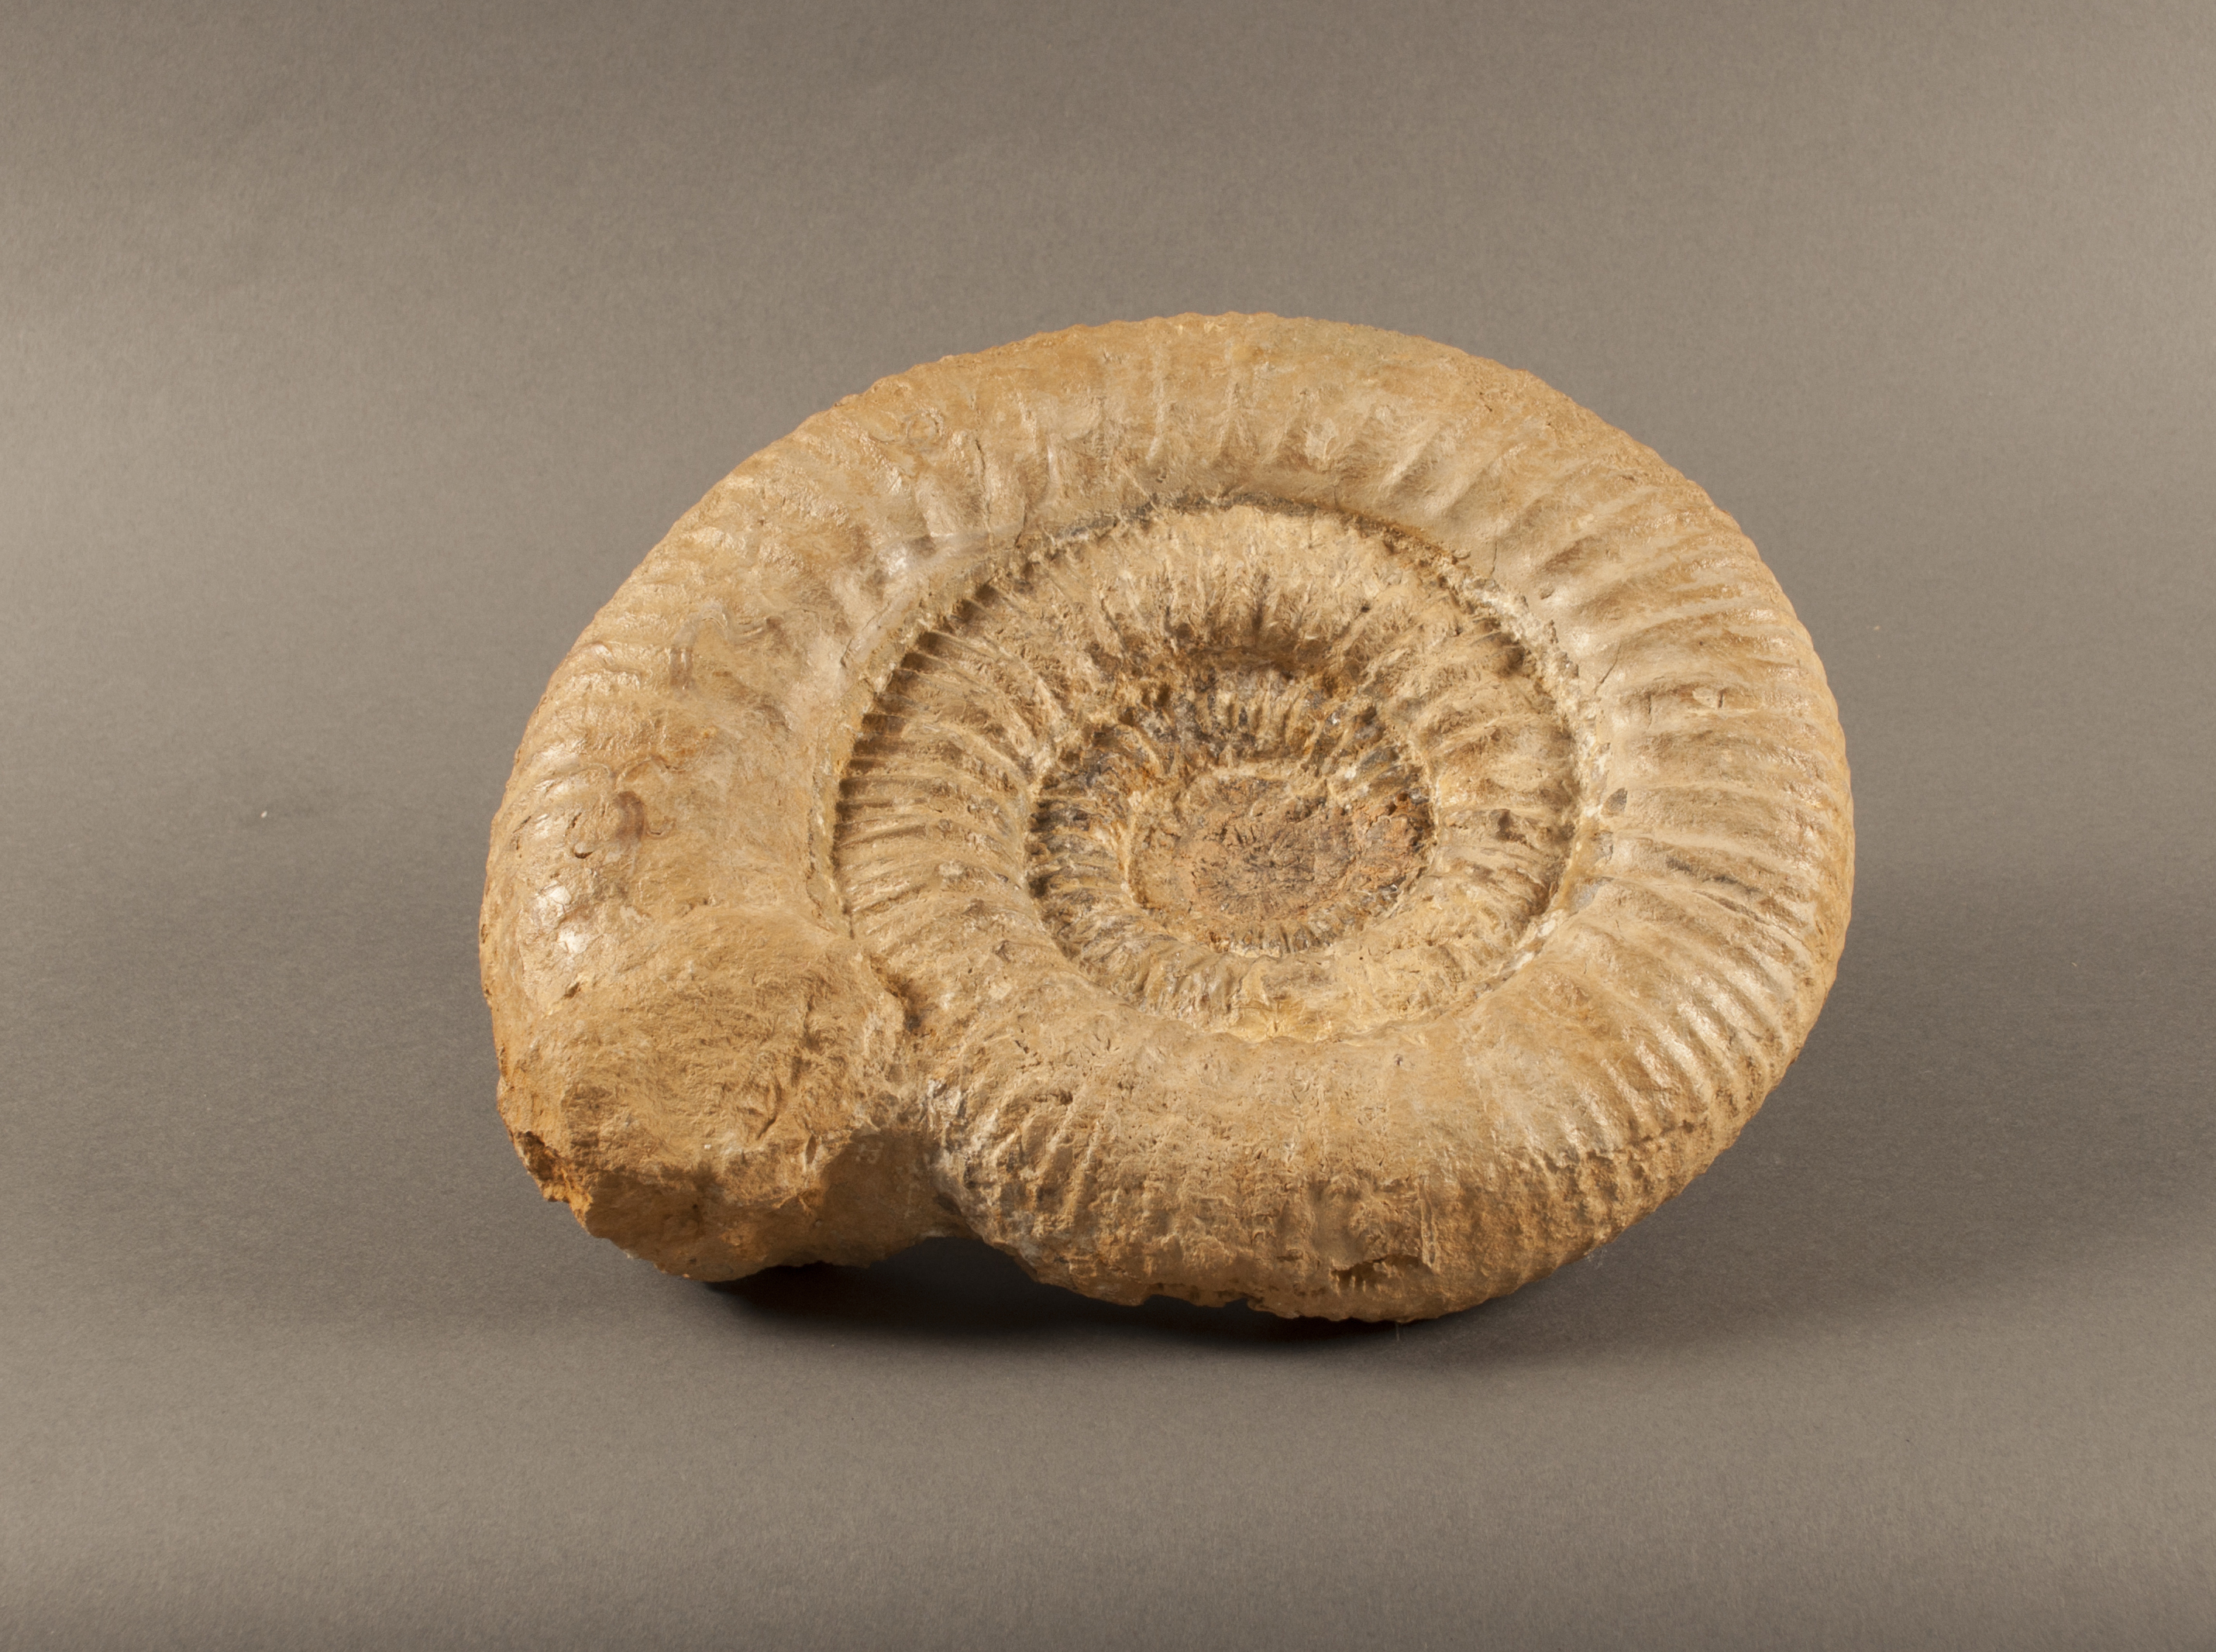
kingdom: Animalia
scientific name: Animalia
